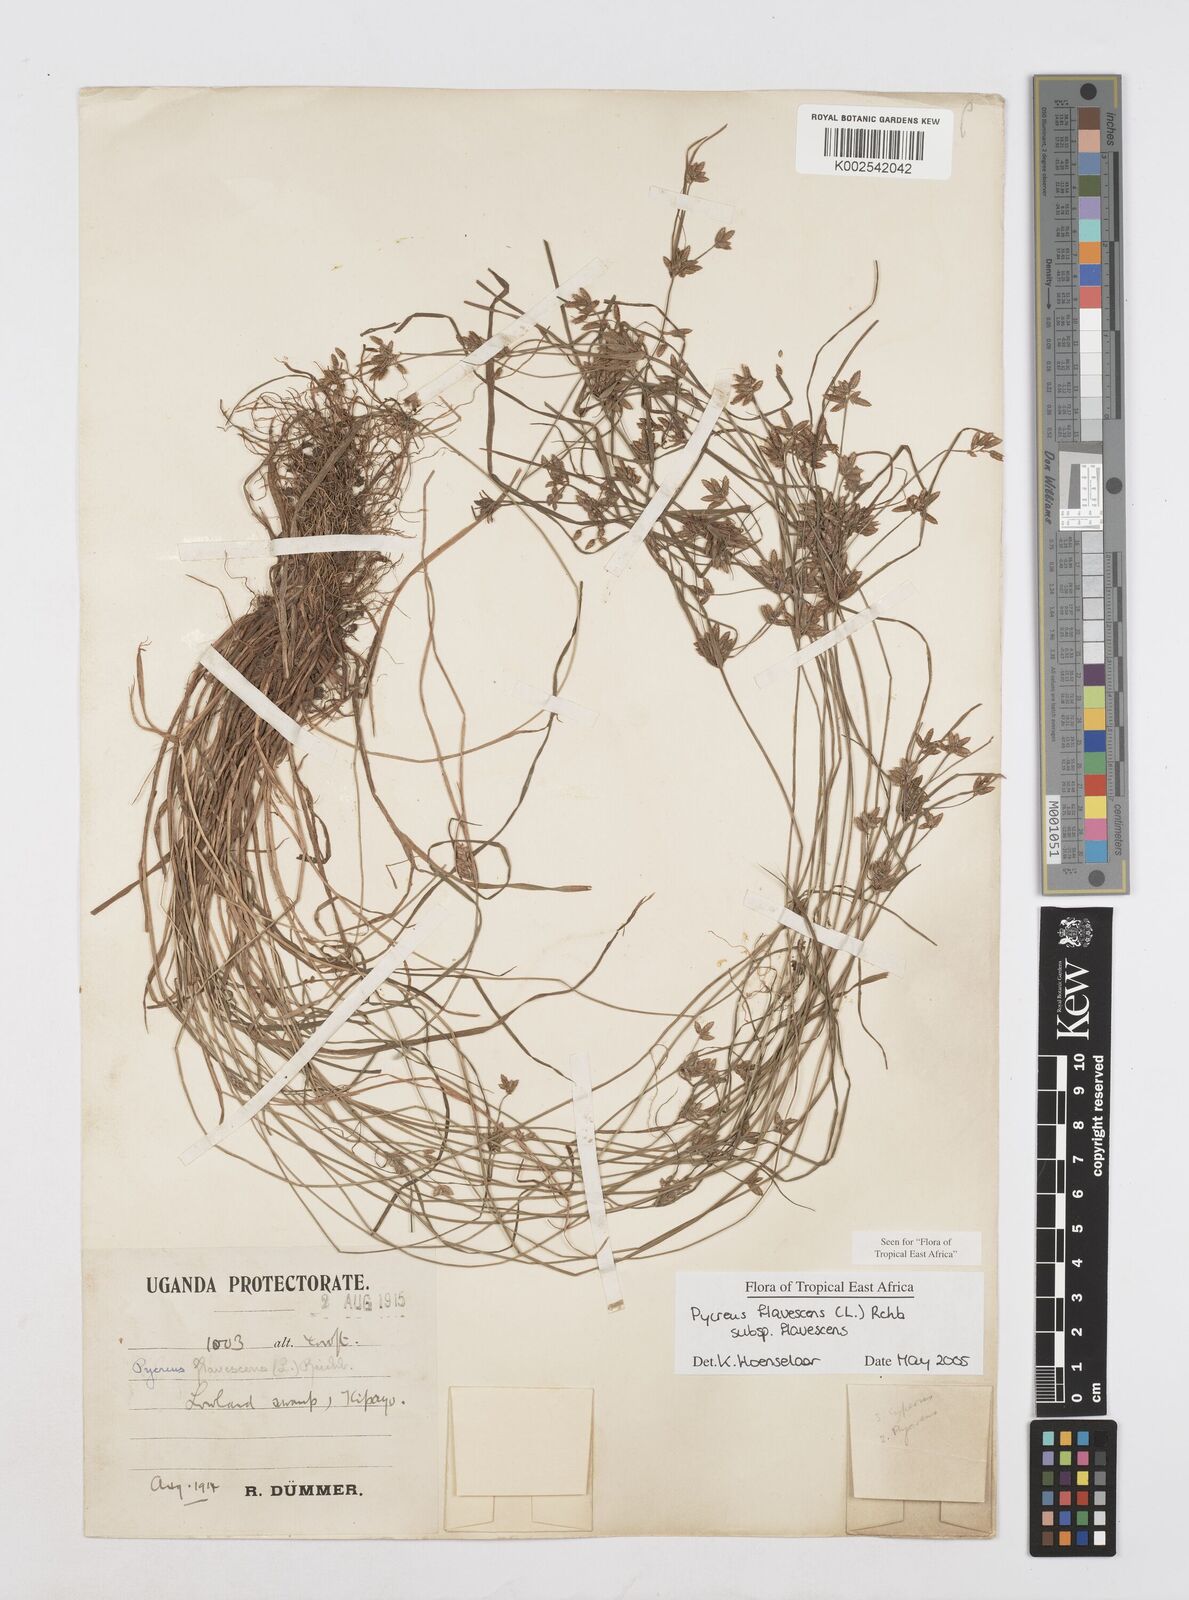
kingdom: Plantae
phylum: Tracheophyta
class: Liliopsida
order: Poales
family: Cyperaceae
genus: Cyperus
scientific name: Cyperus flavescens
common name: Yellow galingale
